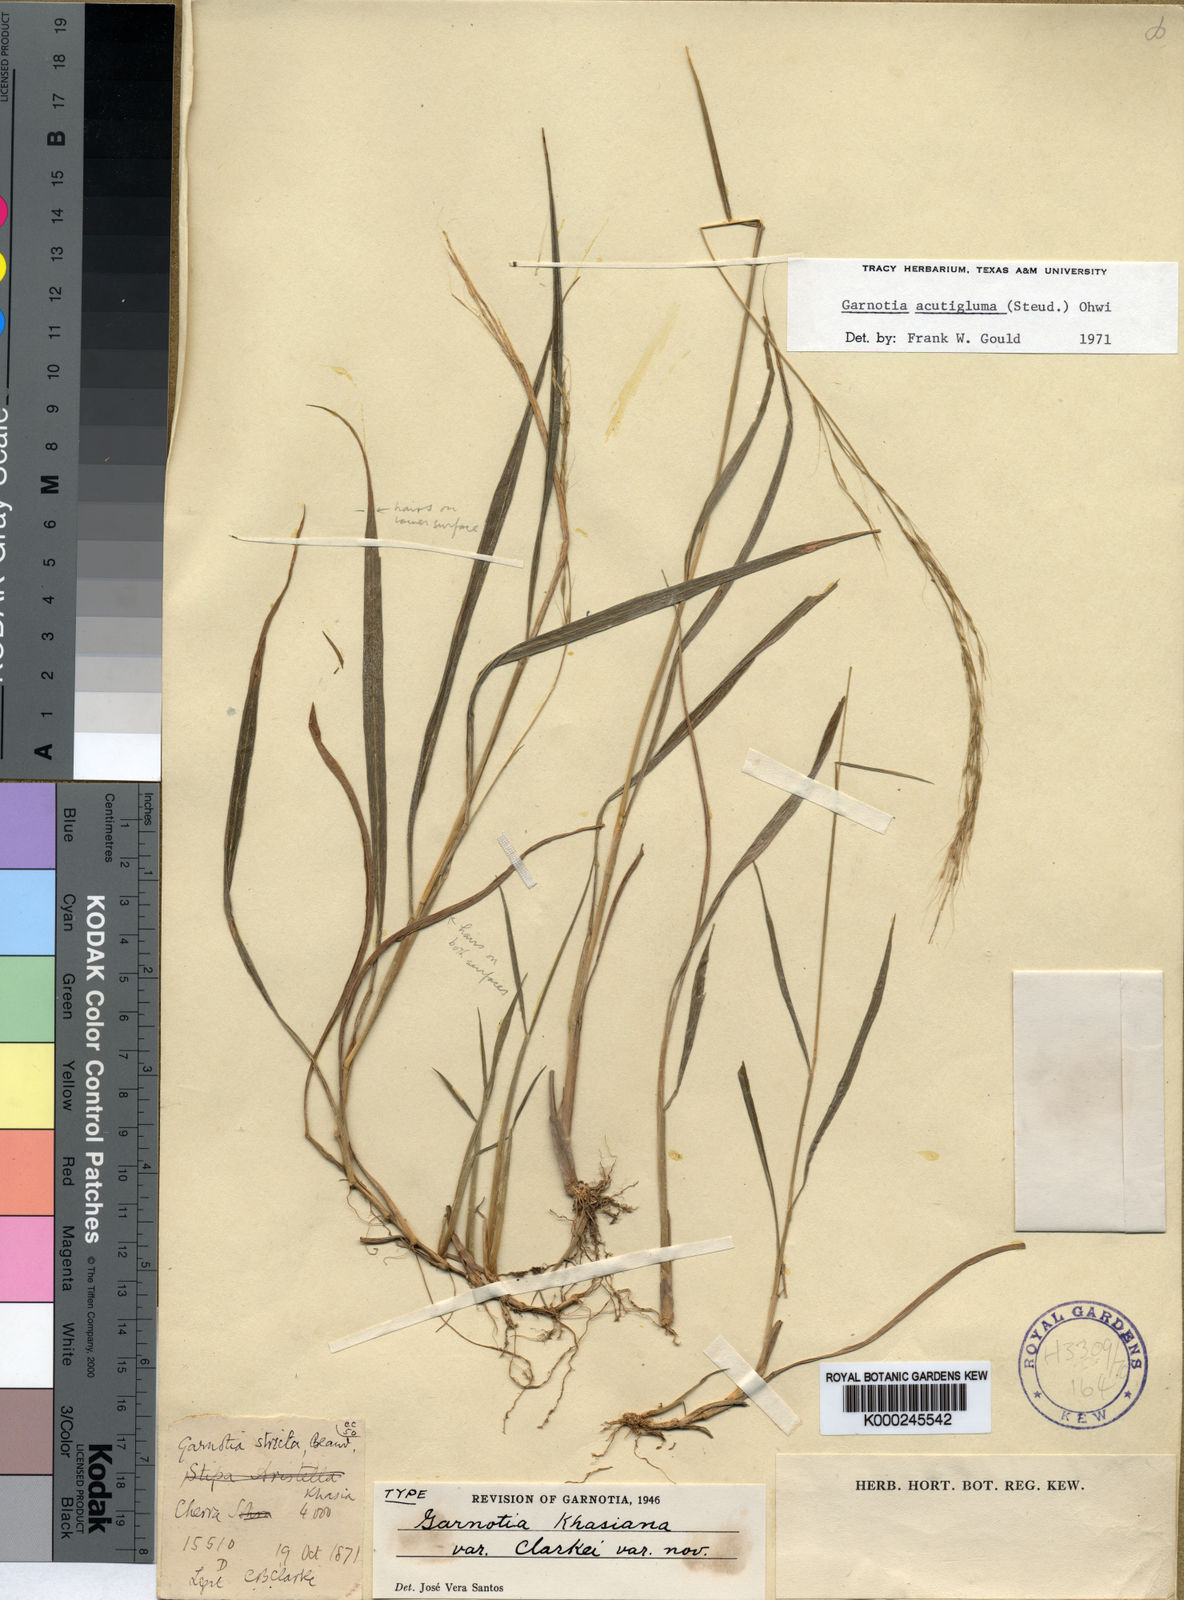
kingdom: Plantae
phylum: Tracheophyta
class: Liliopsida
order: Poales
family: Poaceae
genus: Garnotia
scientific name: Garnotia stricta
